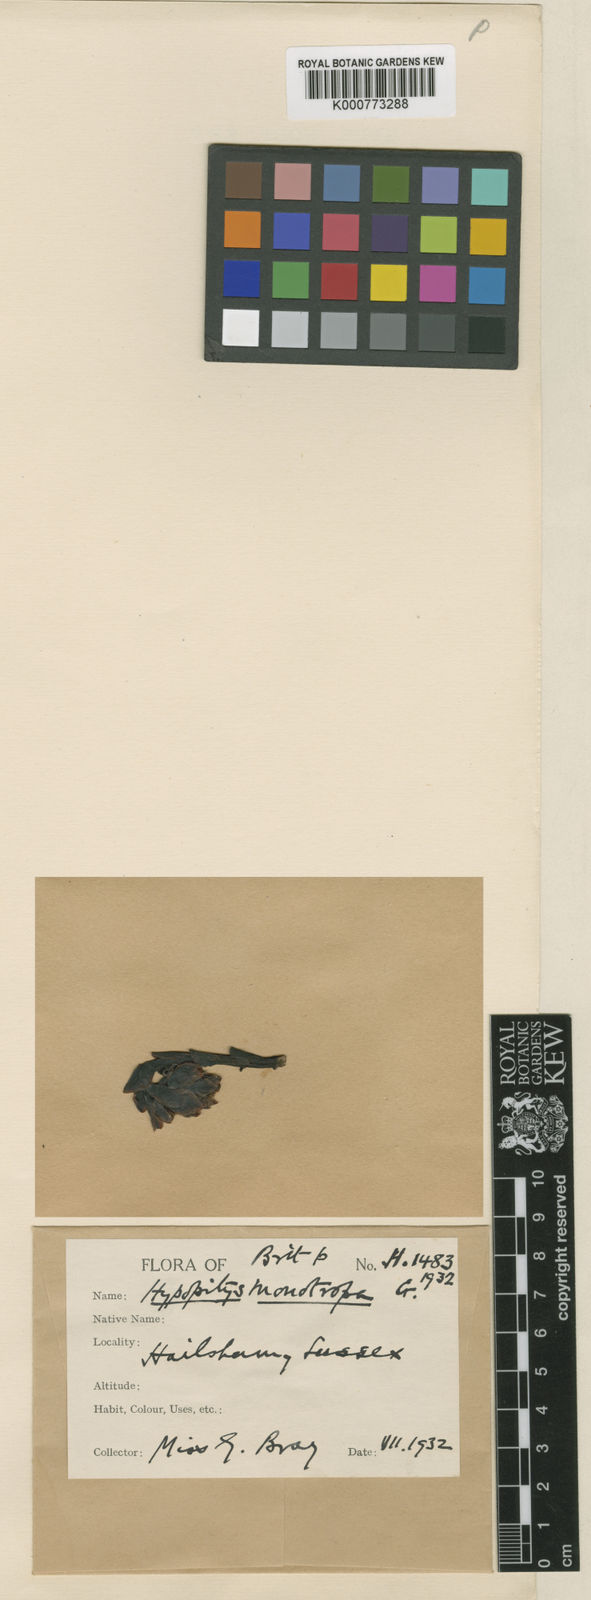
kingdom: Plantae
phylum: Tracheophyta
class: Magnoliopsida
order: Ericales
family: Ericaceae
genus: Monotropa
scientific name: Monotropa
